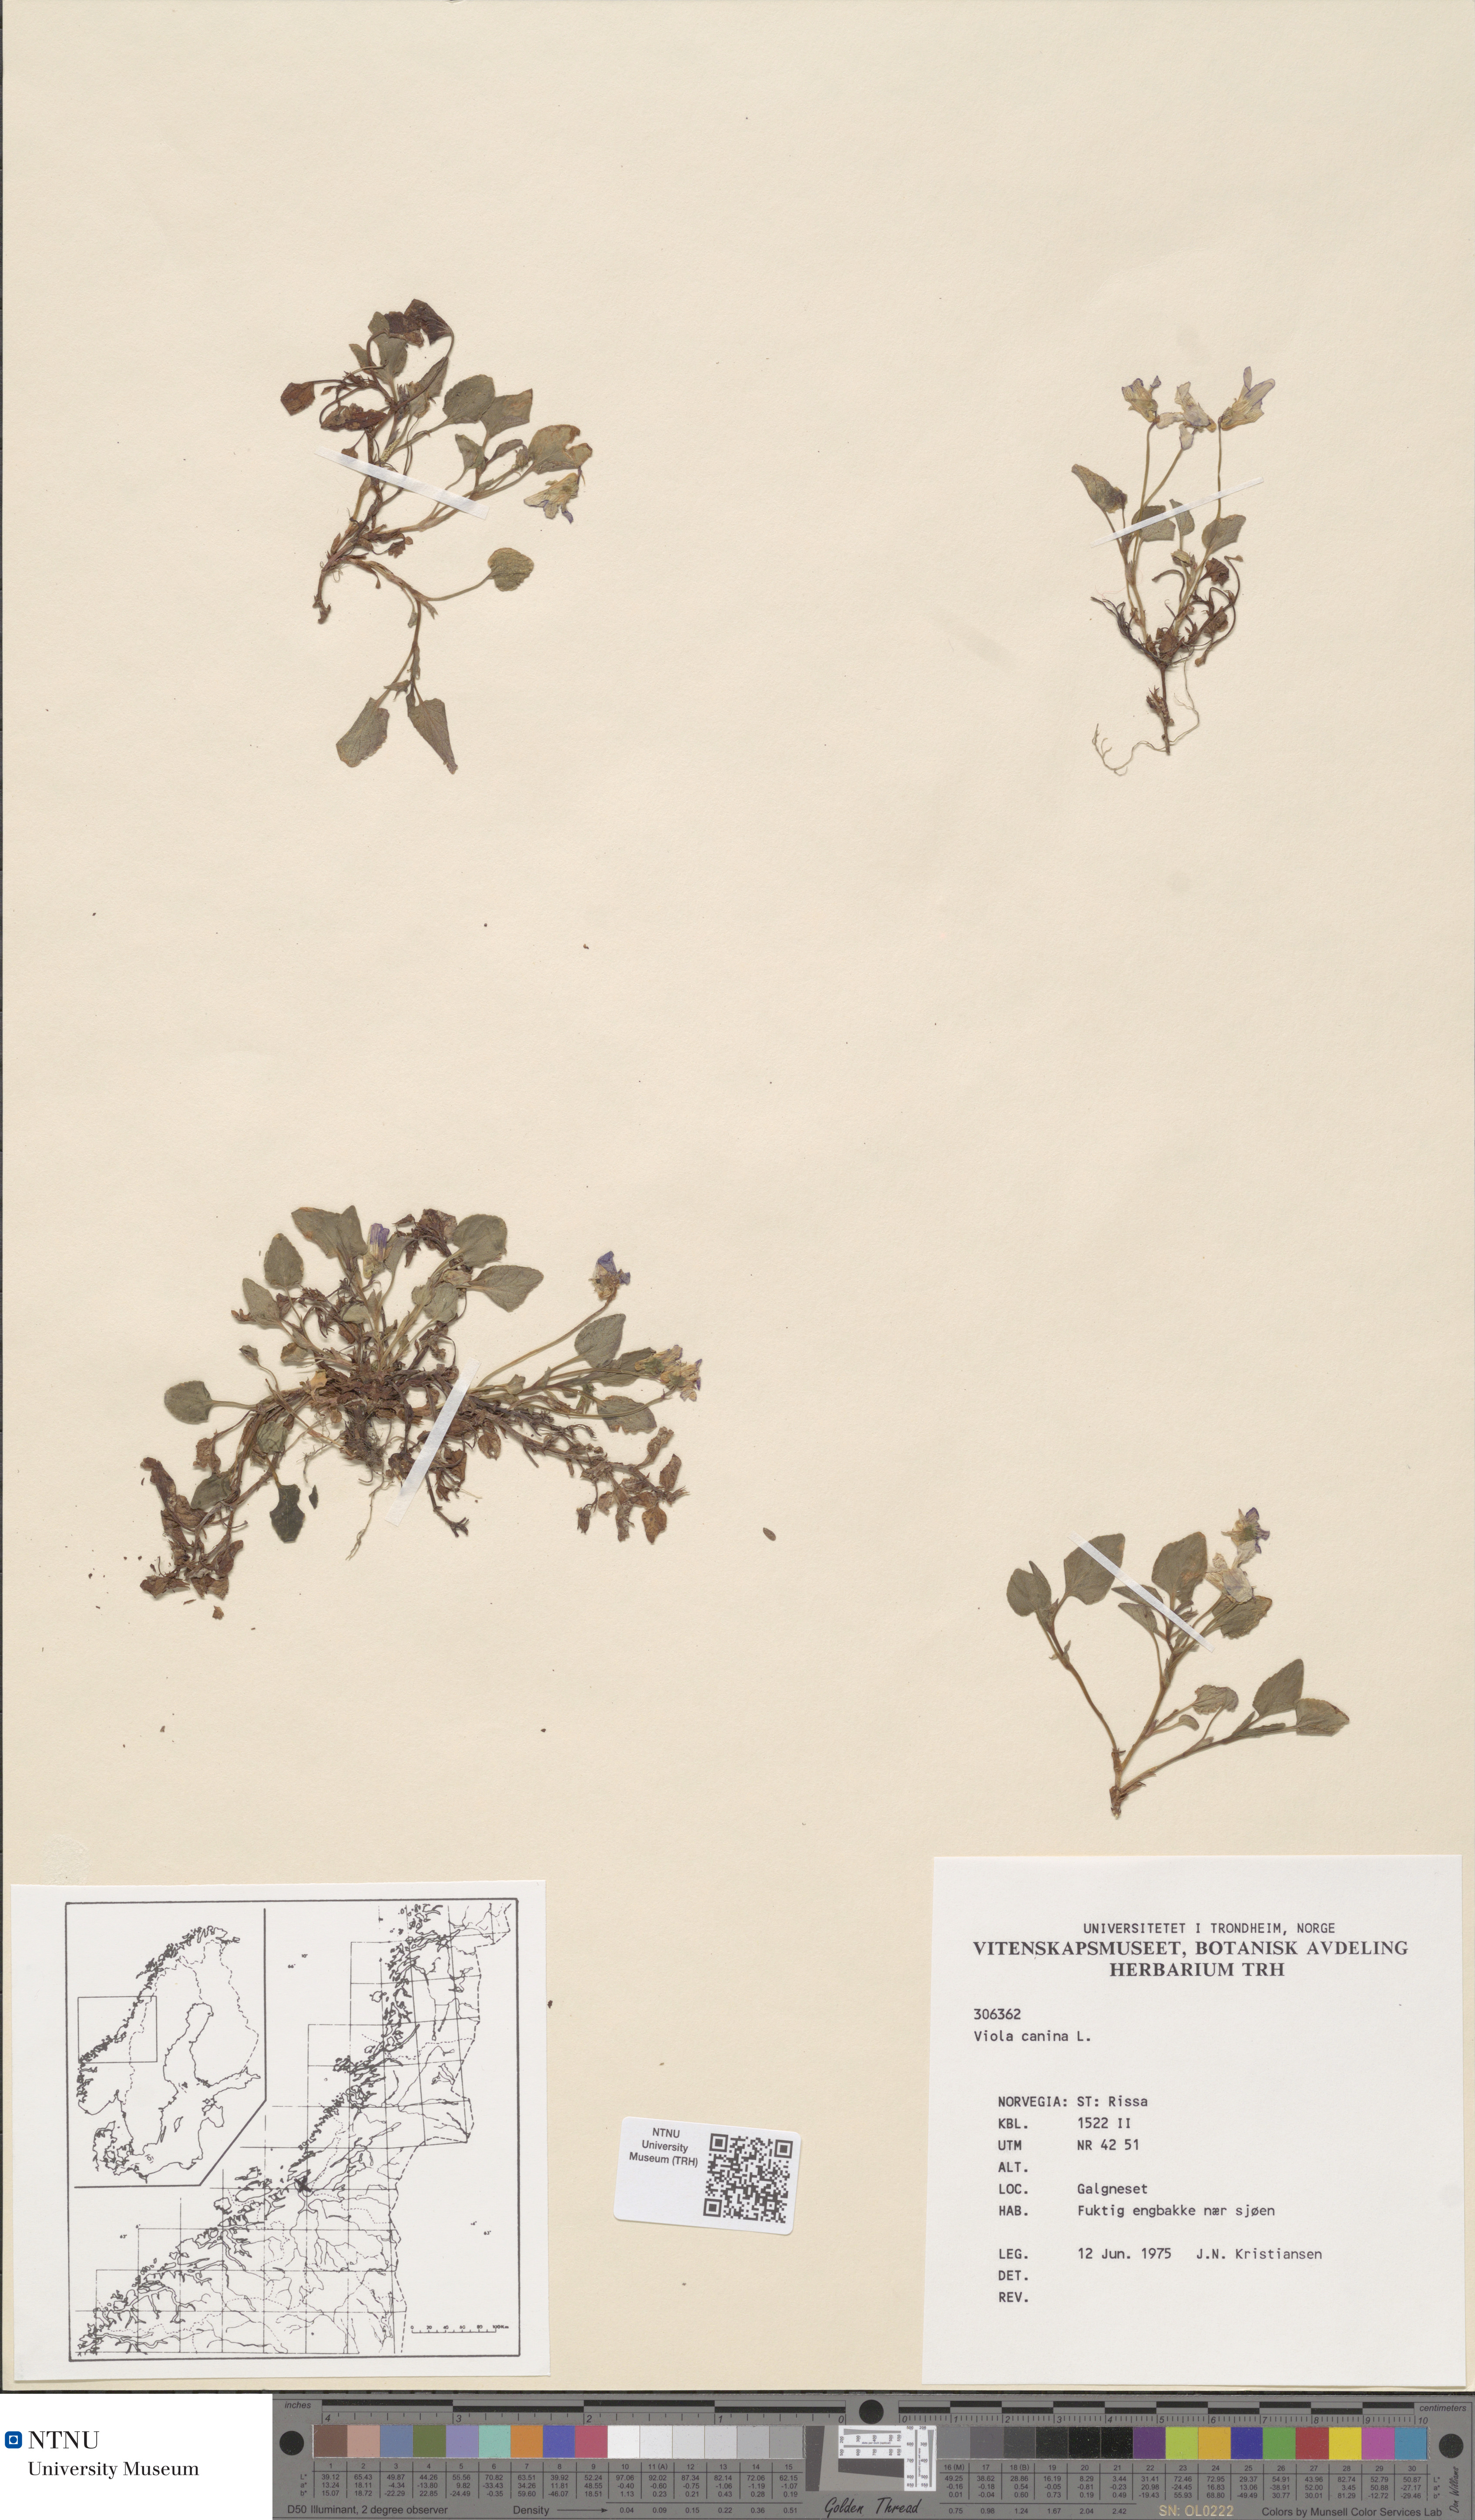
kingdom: Plantae
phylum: Tracheophyta
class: Magnoliopsida
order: Malpighiales
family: Violaceae
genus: Viola
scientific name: Viola canina
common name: Heath dog-violet
